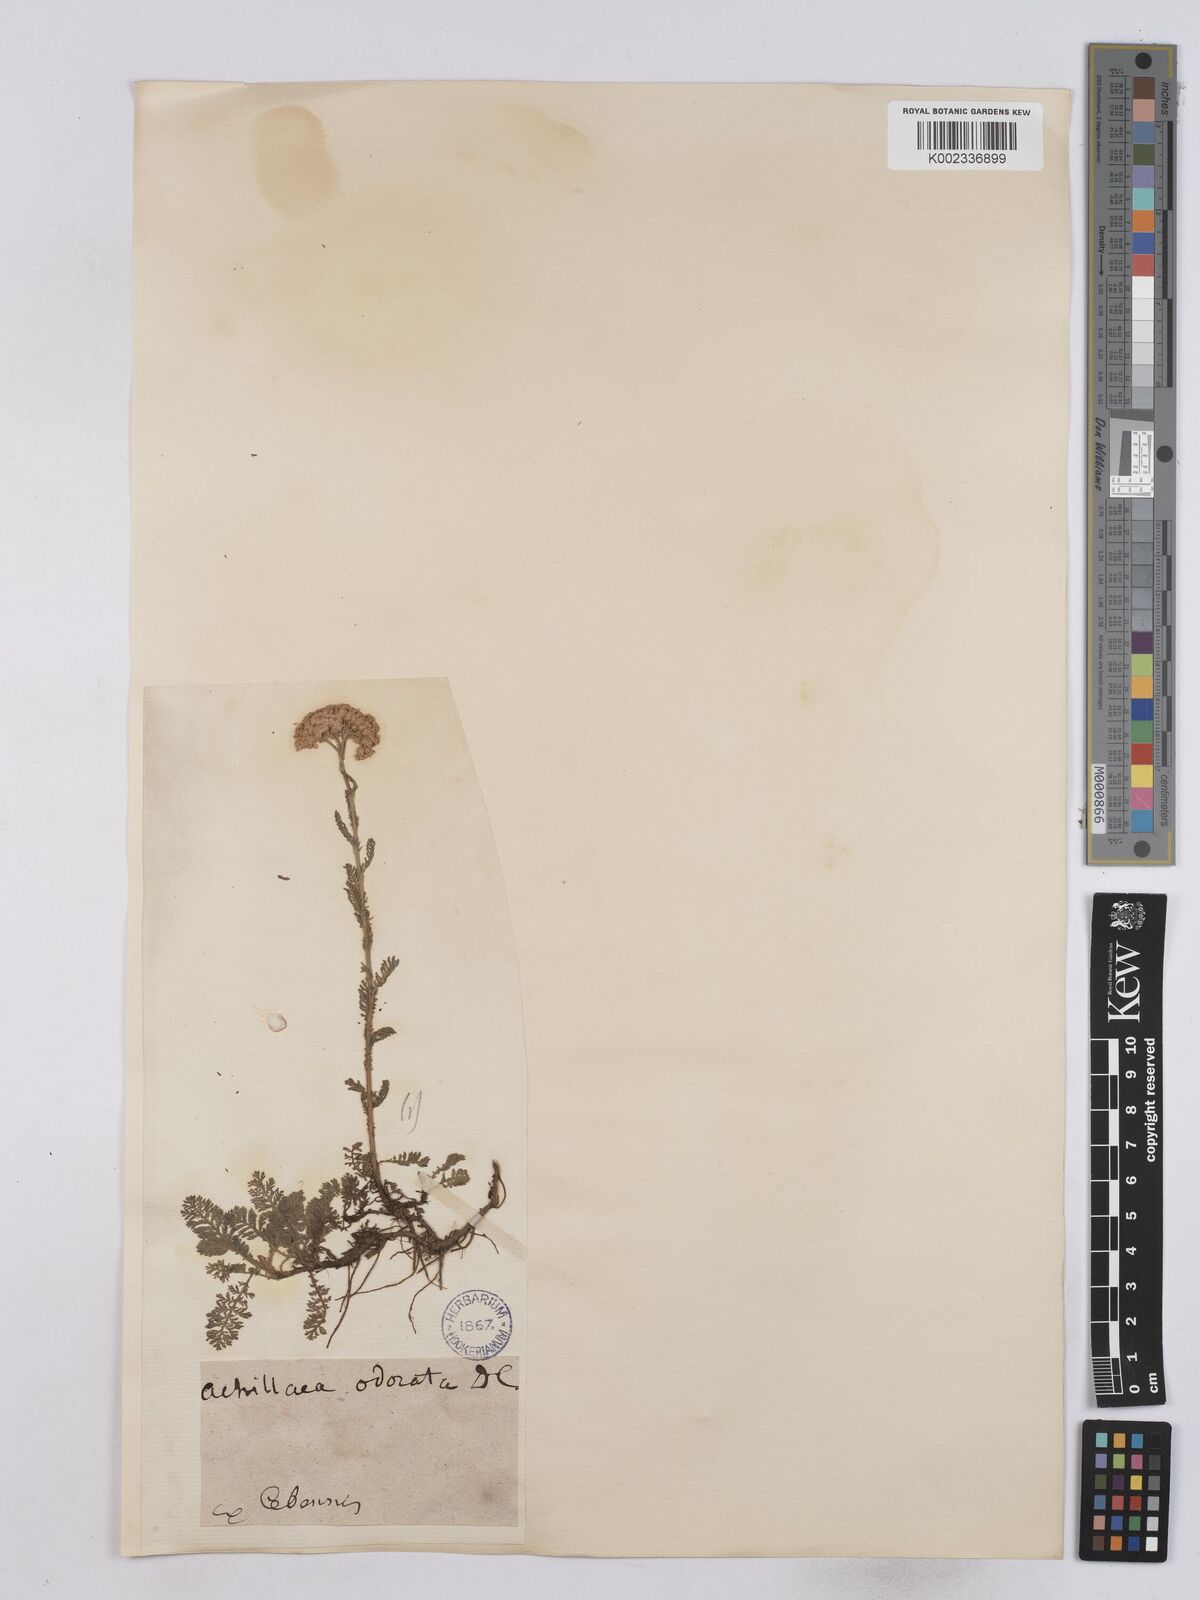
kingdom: Plantae
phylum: Tracheophyta
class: Magnoliopsida
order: Asterales
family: Asteraceae
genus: Achillea
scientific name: Achillea odorata
